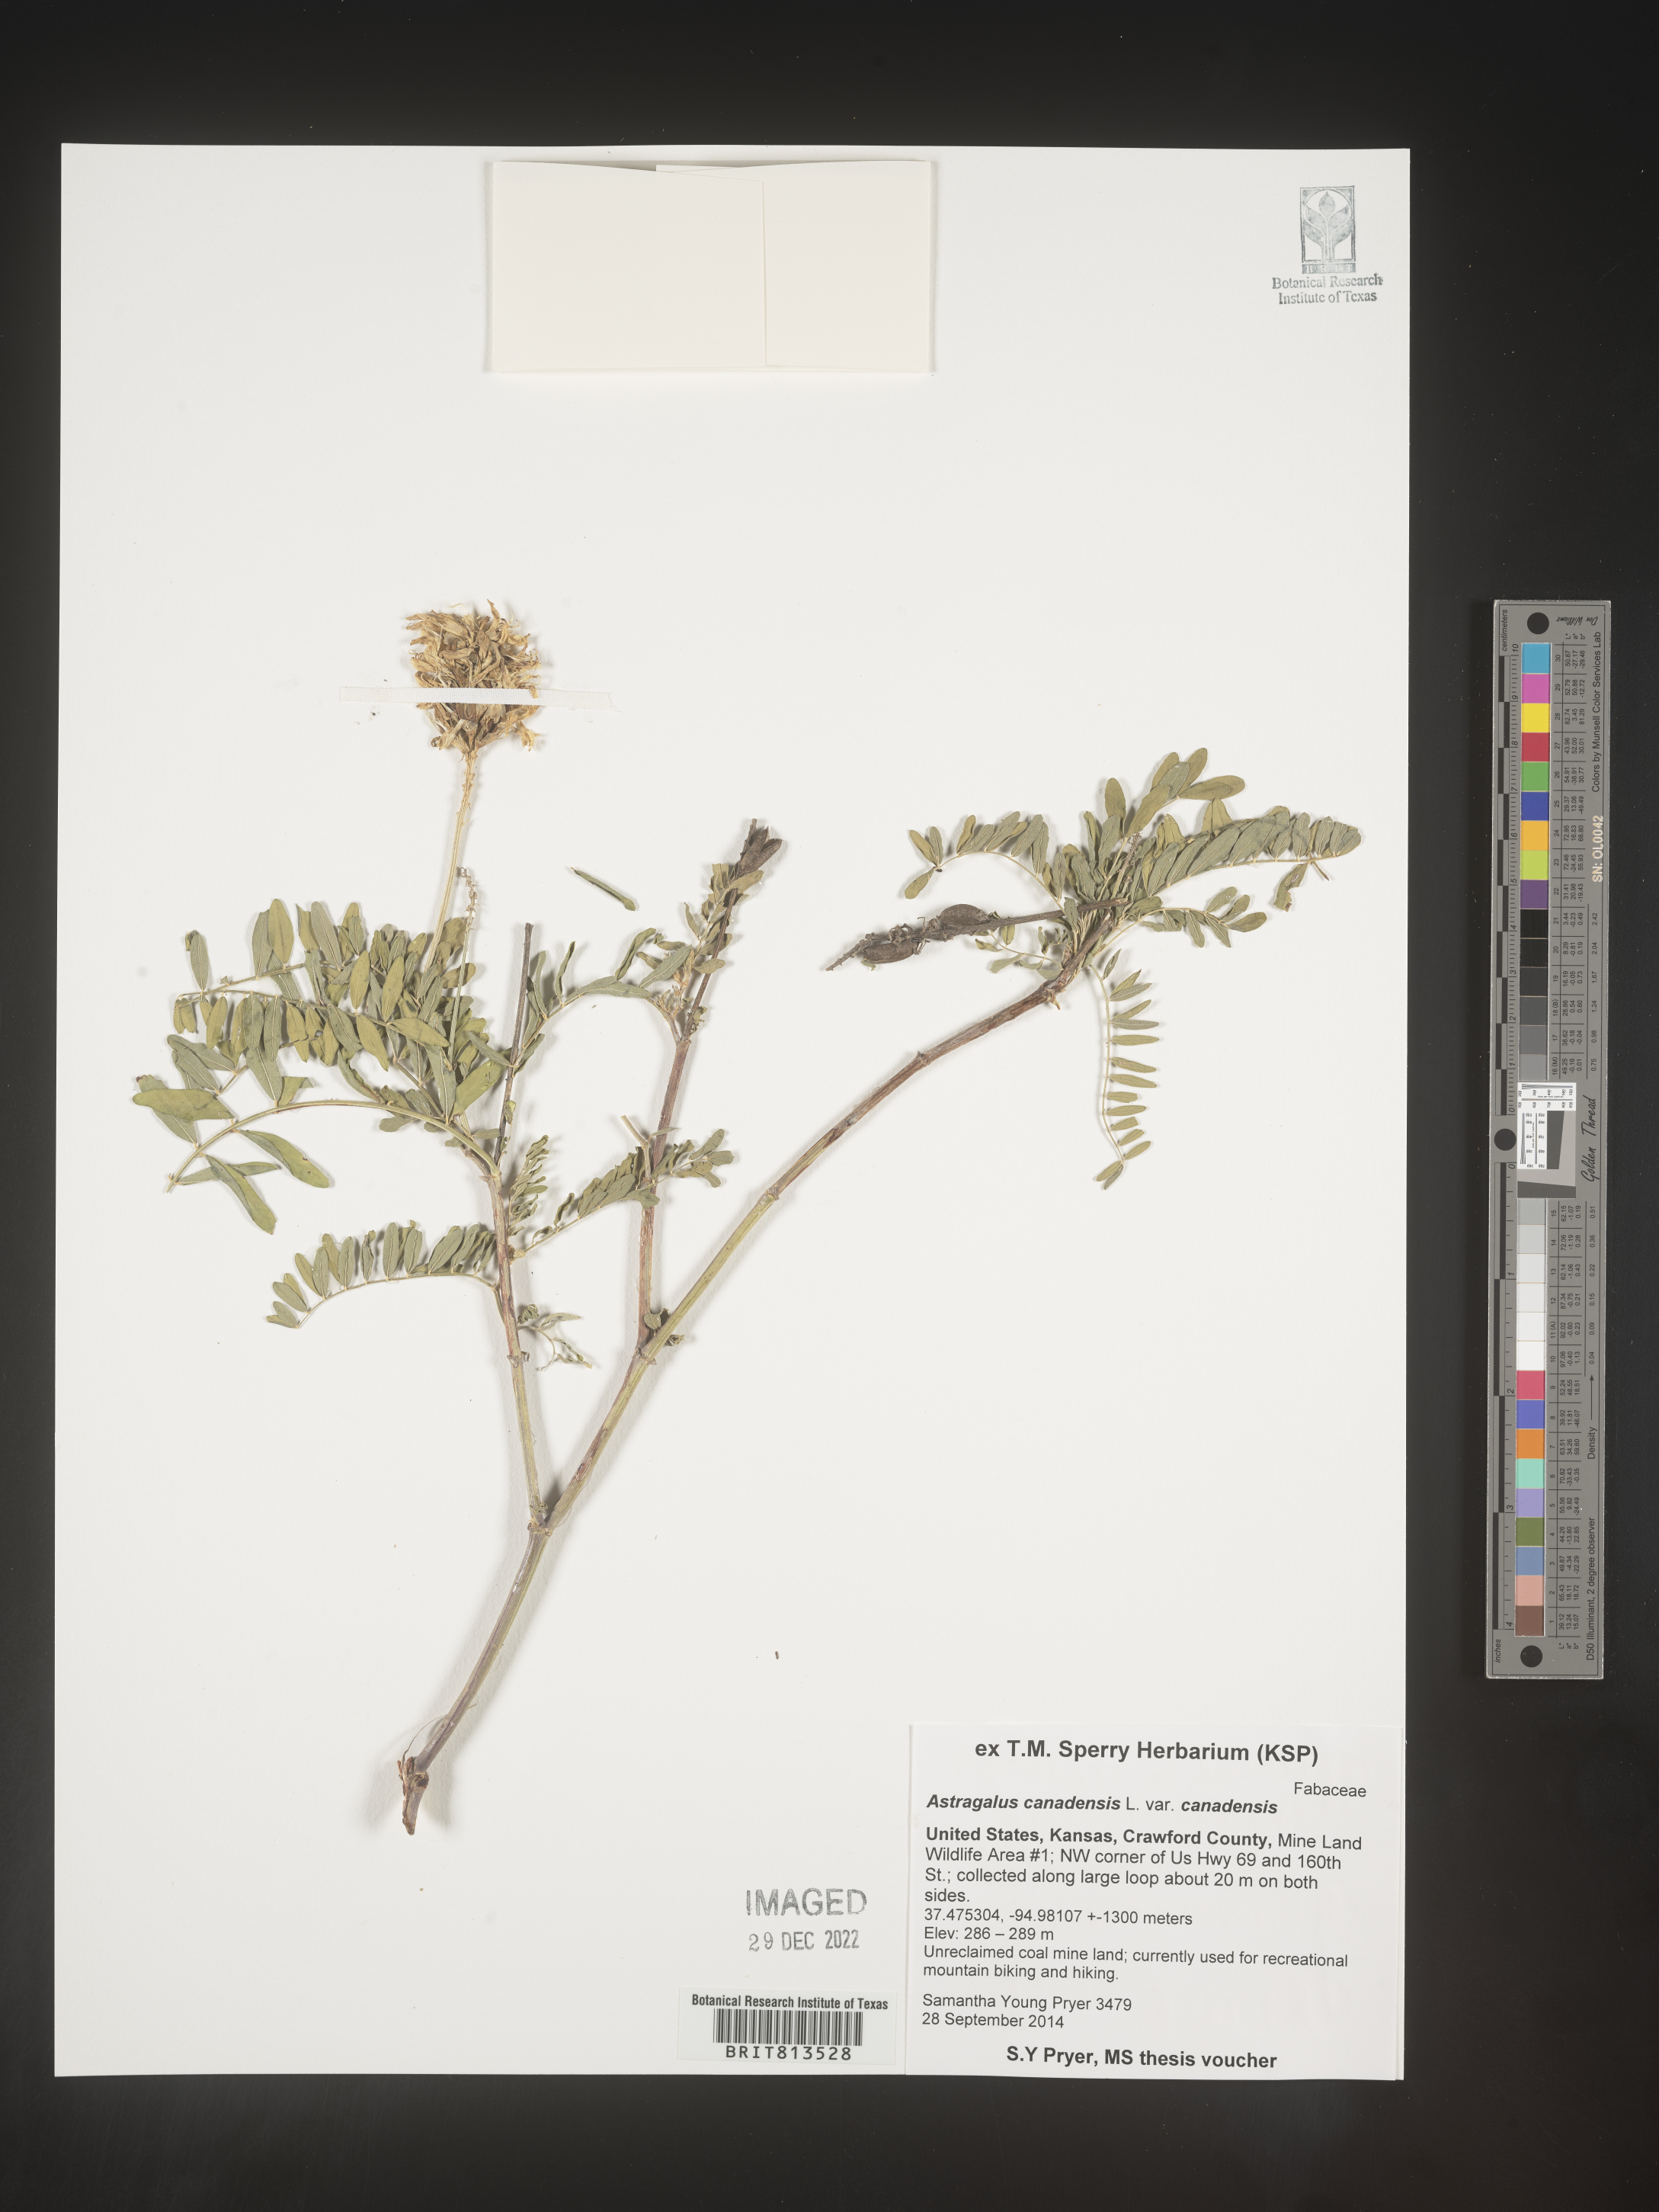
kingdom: Plantae
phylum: Tracheophyta
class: Magnoliopsida
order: Fabales
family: Fabaceae
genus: Astragalus
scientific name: Astragalus canadensis
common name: Canada milk-vetch
